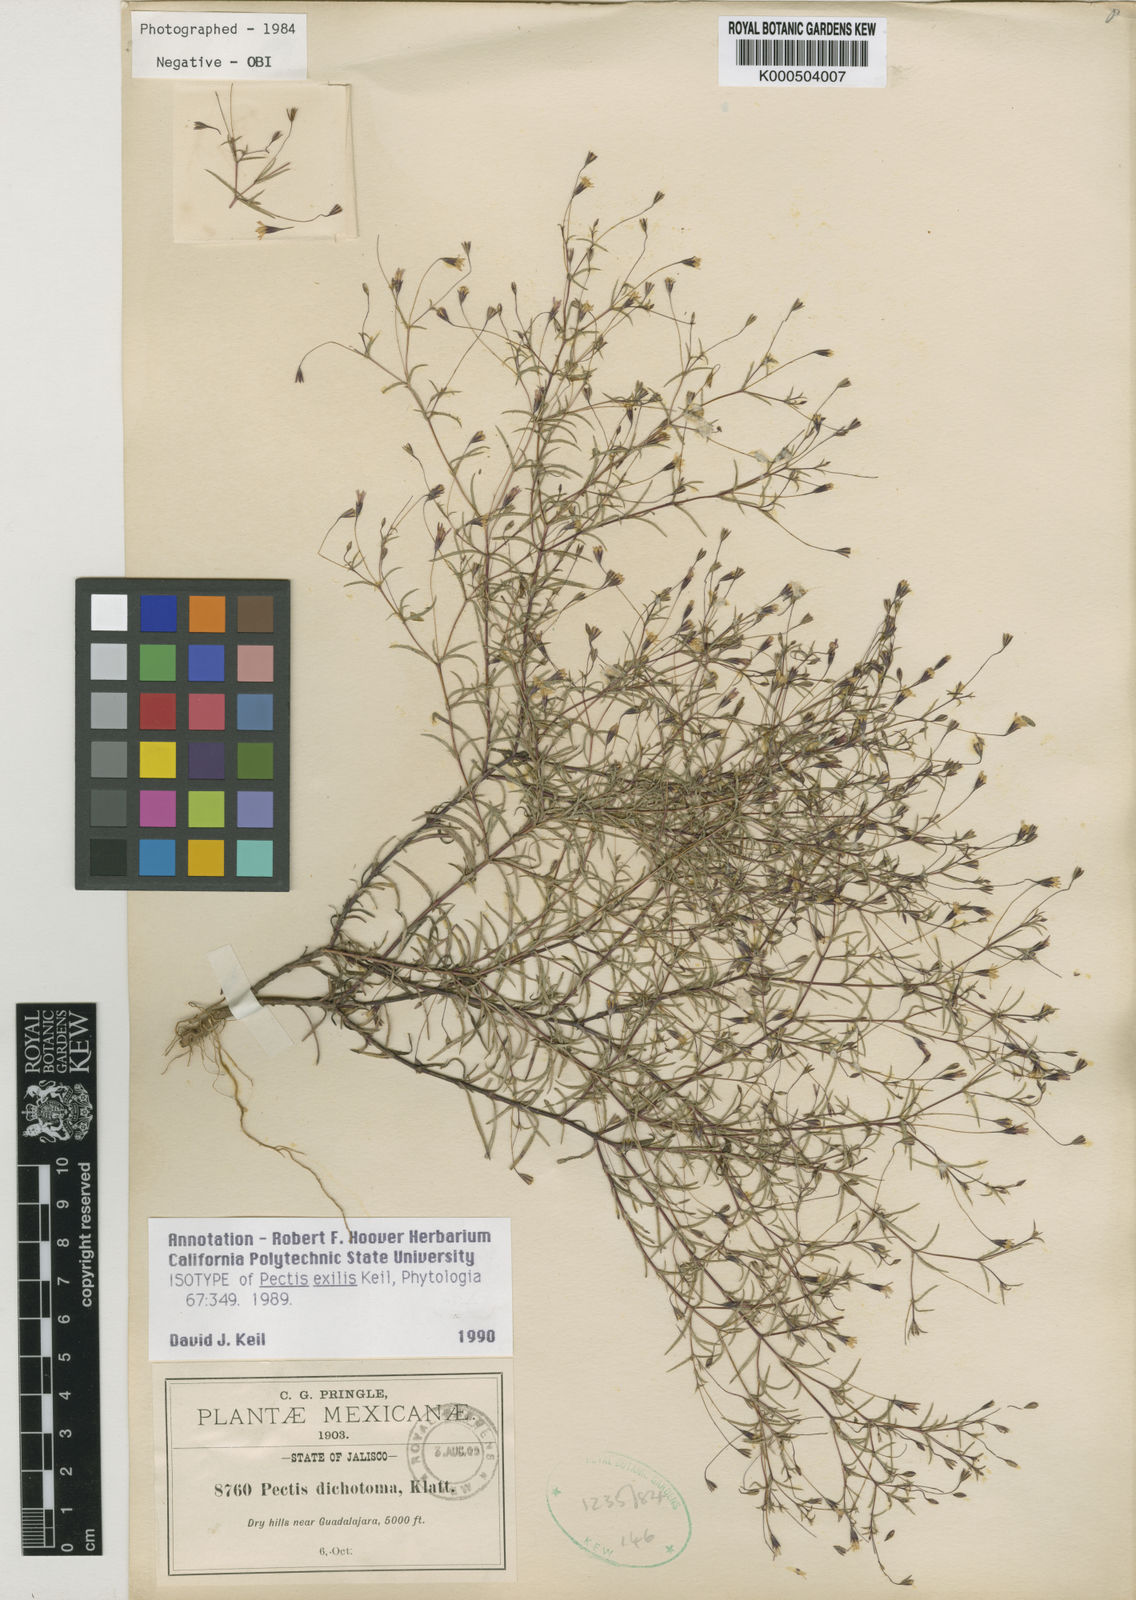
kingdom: Plantae
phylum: Tracheophyta
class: Magnoliopsida
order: Asterales
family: Asteraceae
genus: Pectis
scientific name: Pectis exilis
